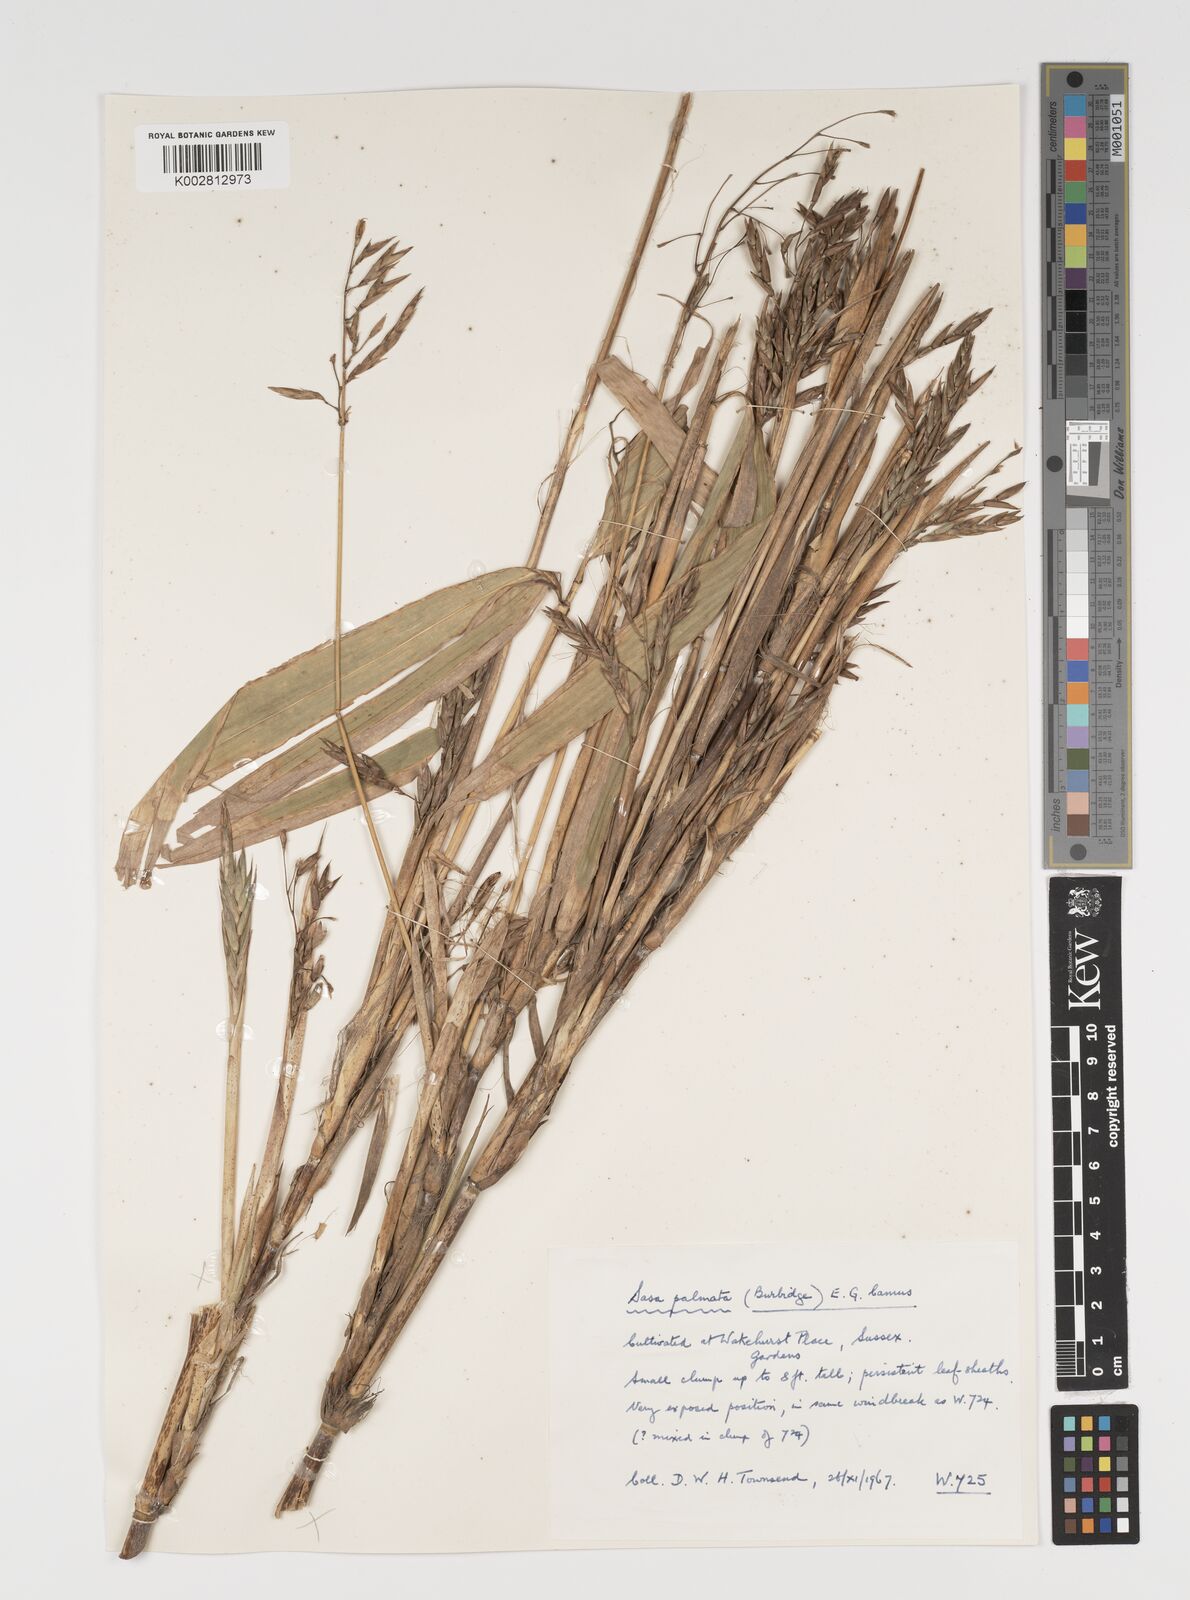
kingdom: Plantae
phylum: Tracheophyta
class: Liliopsida
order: Poales
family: Poaceae
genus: Sasa
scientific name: Sasa palmata
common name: Broad-leaved bamboo
